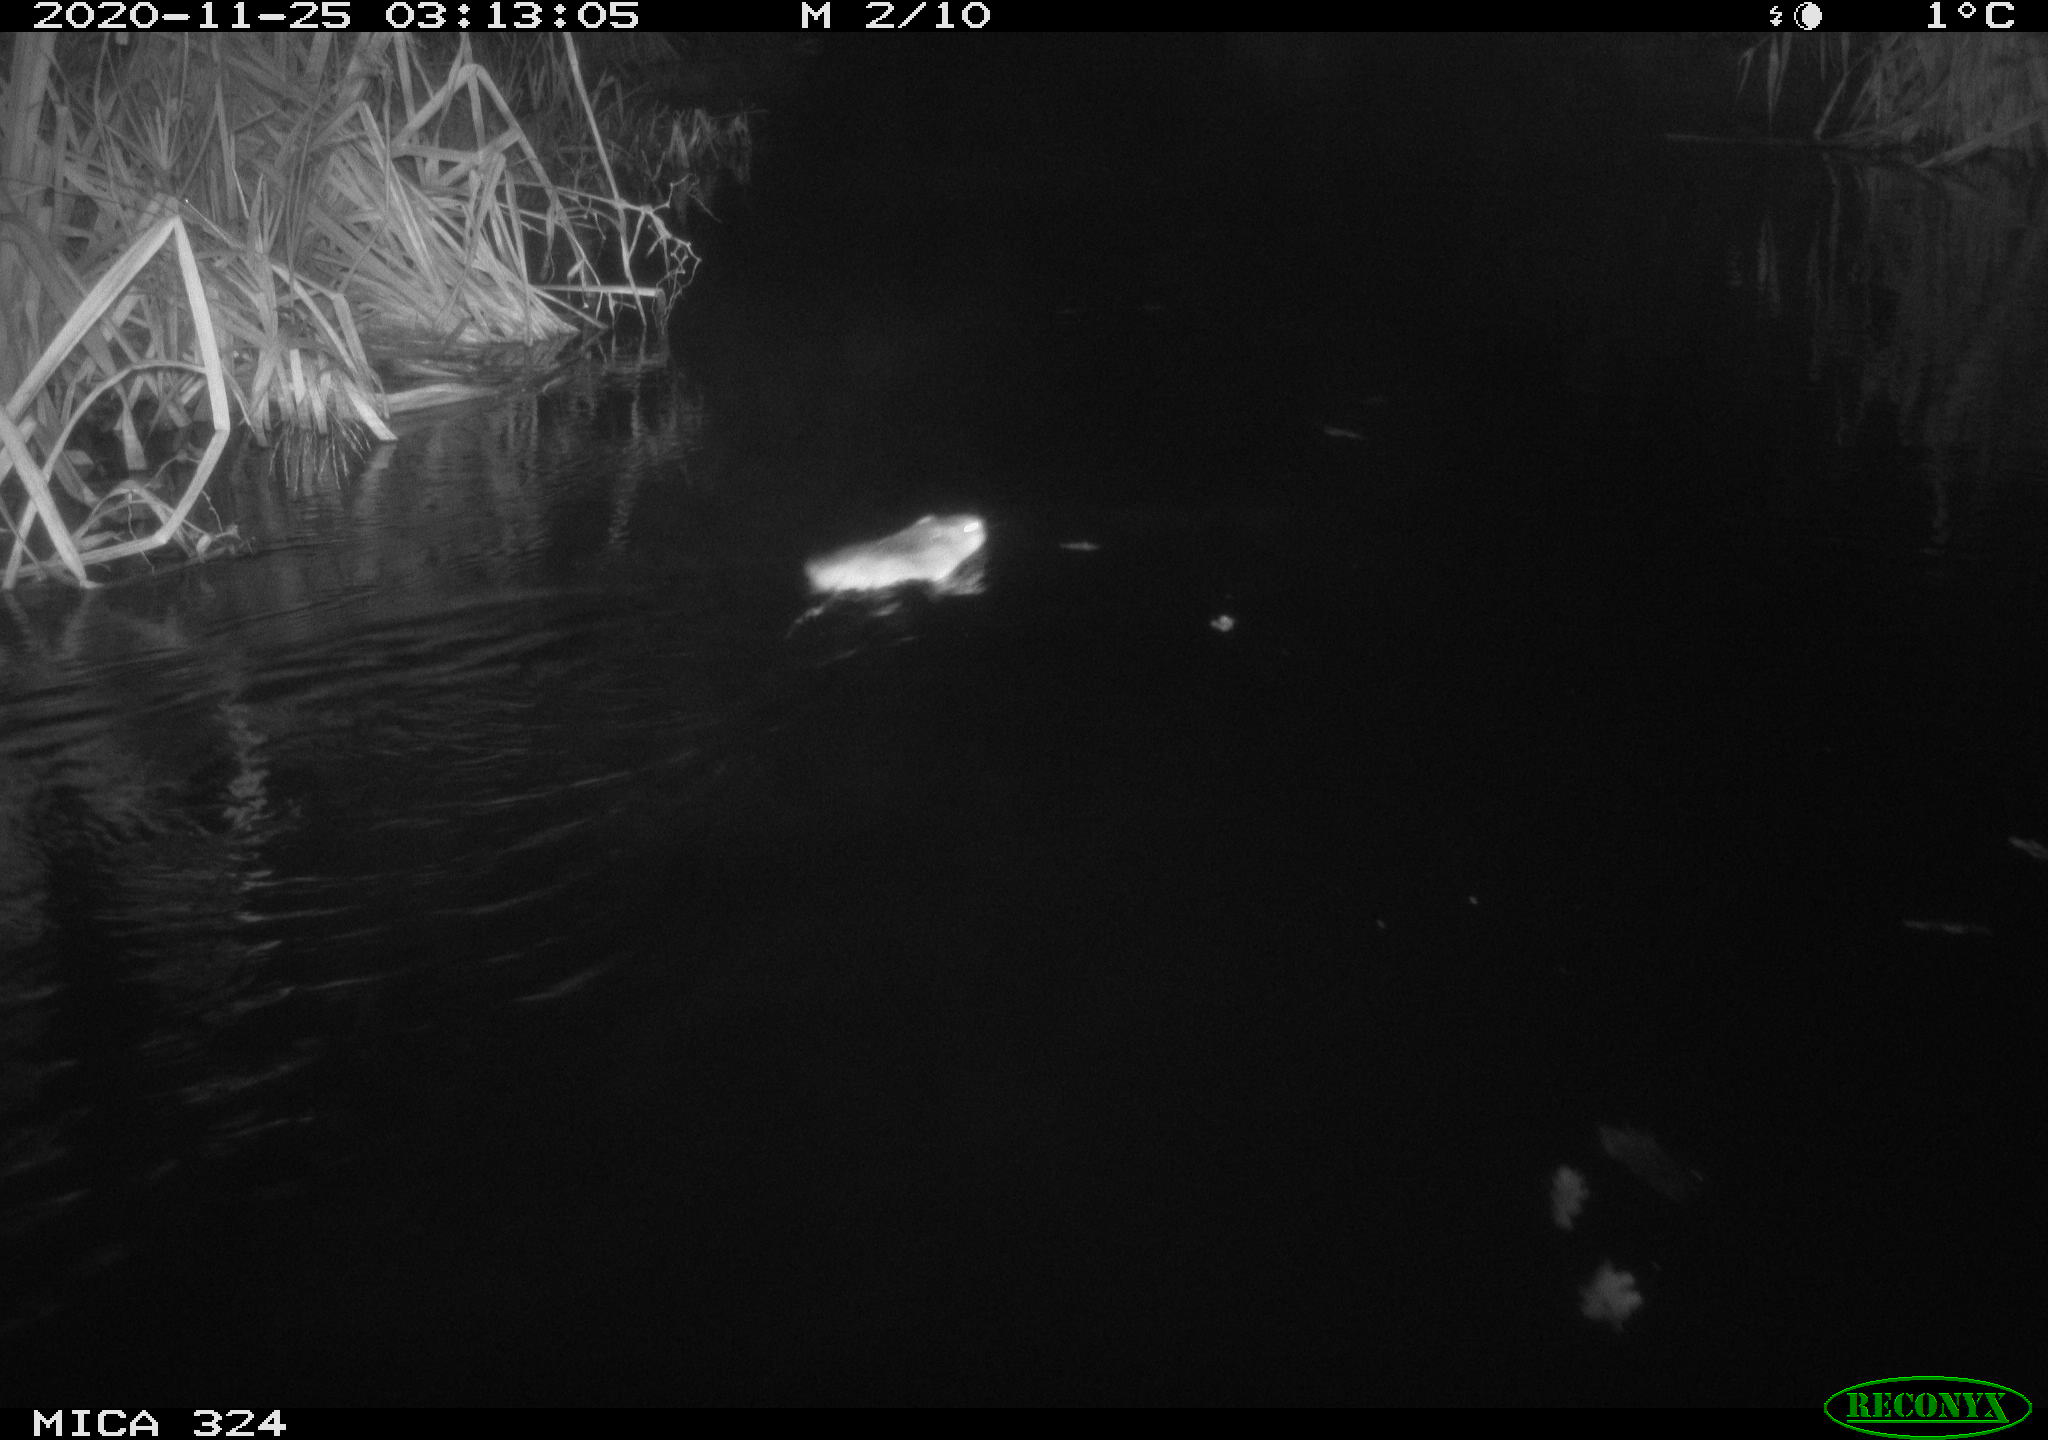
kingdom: Animalia
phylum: Chordata
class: Mammalia
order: Rodentia
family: Cricetidae
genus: Ondatra
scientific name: Ondatra zibethicus
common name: Muskrat
